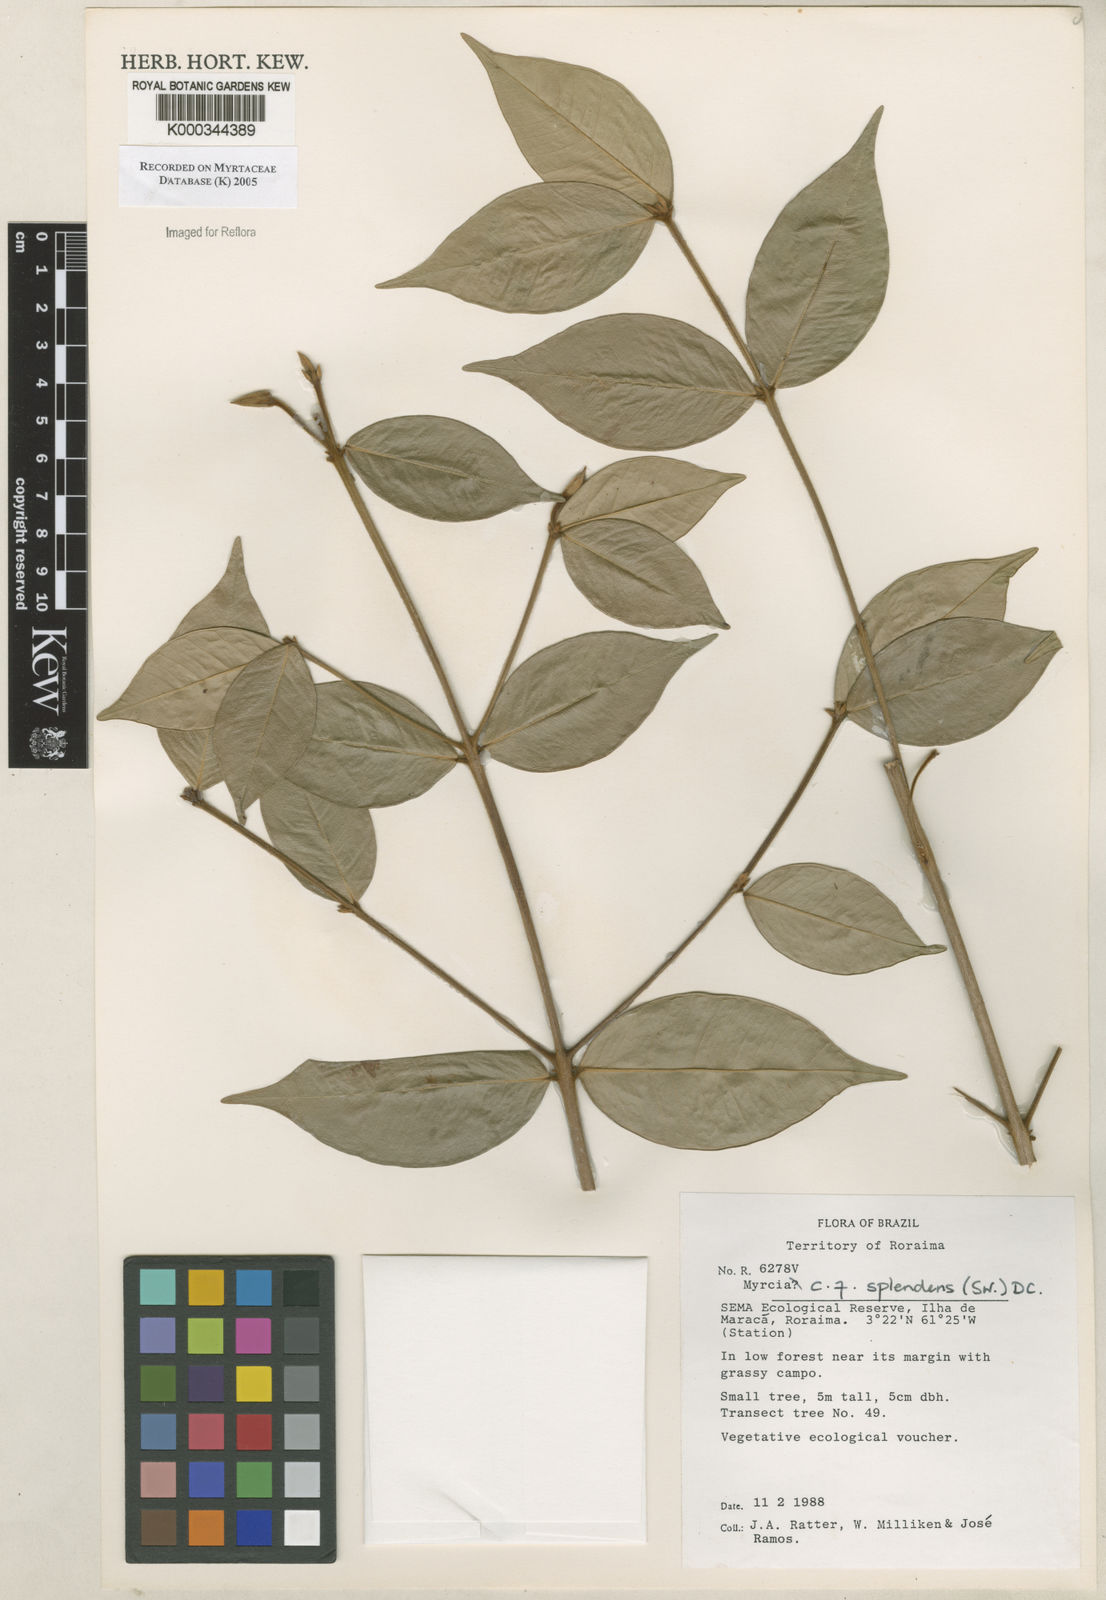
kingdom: Plantae
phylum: Tracheophyta
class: Magnoliopsida
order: Myrtales
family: Myrtaceae
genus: Myrcia
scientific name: Myrcia splendens
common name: Surinam cherry
